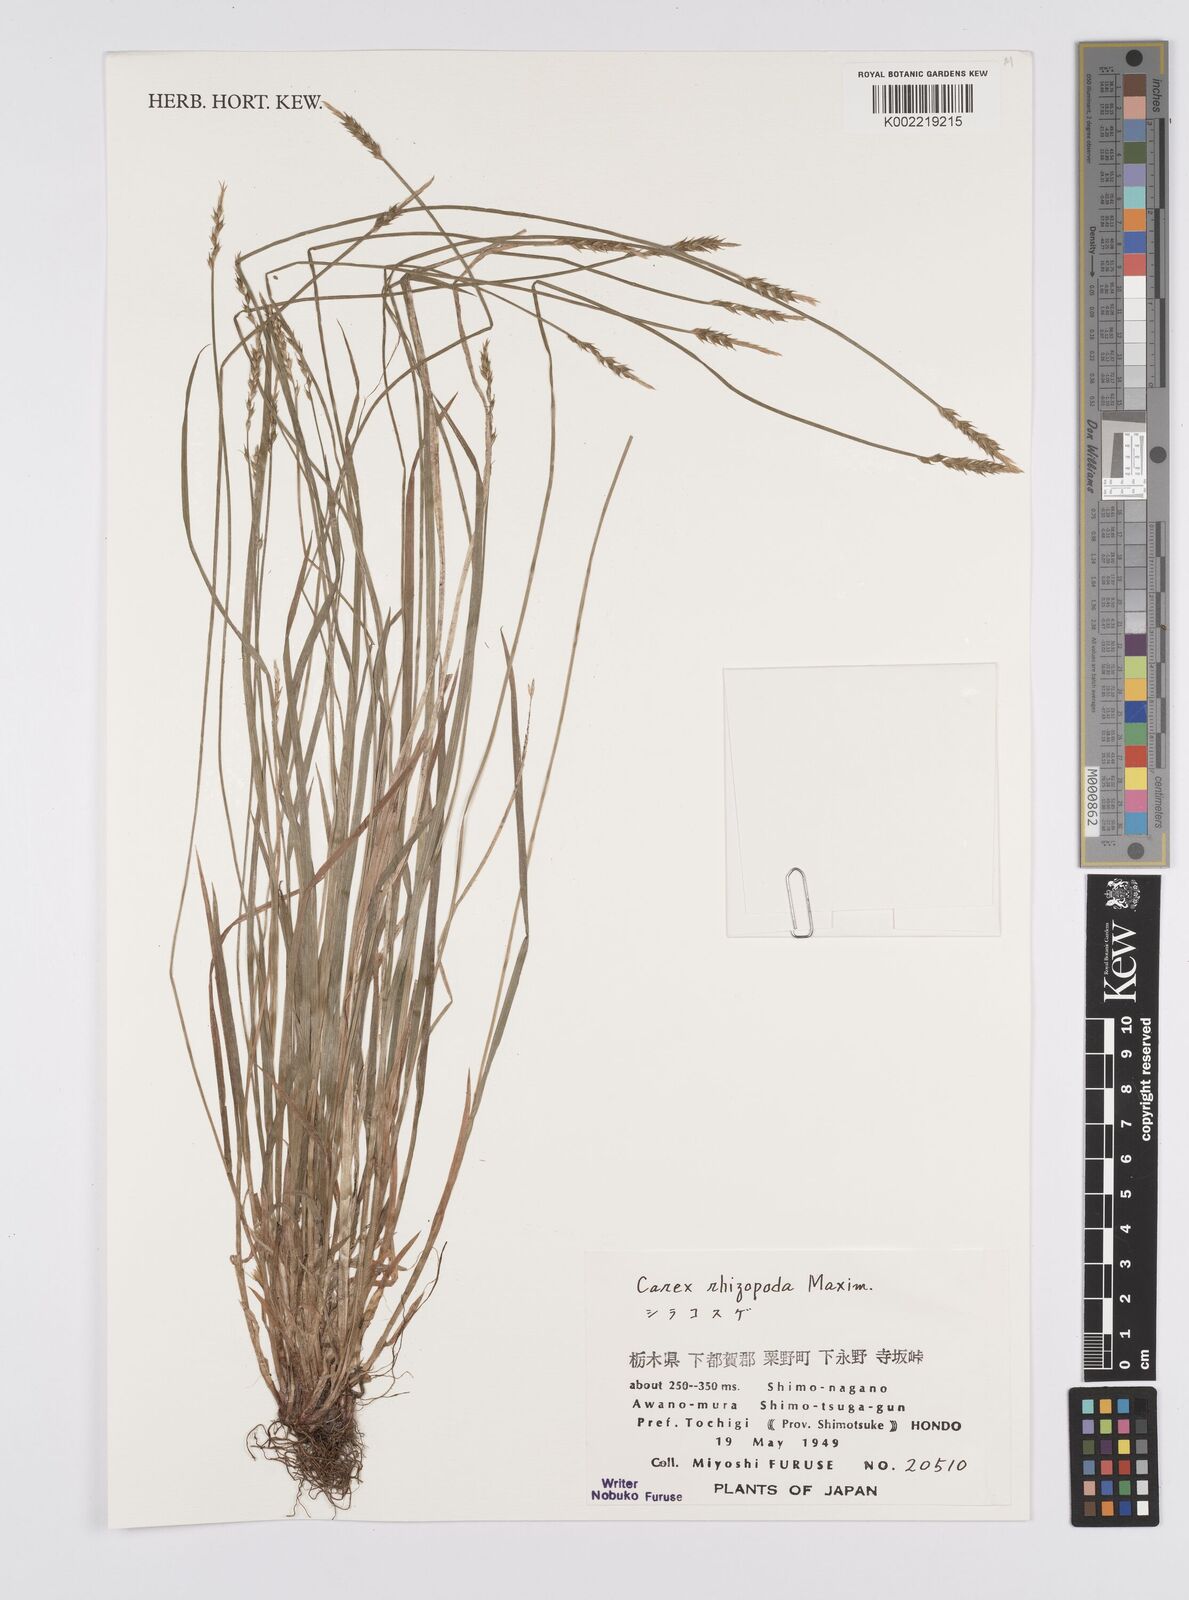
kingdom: Plantae
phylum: Tracheophyta
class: Liliopsida
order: Poales
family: Cyperaceae
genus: Carex
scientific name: Carex rhizopoda
